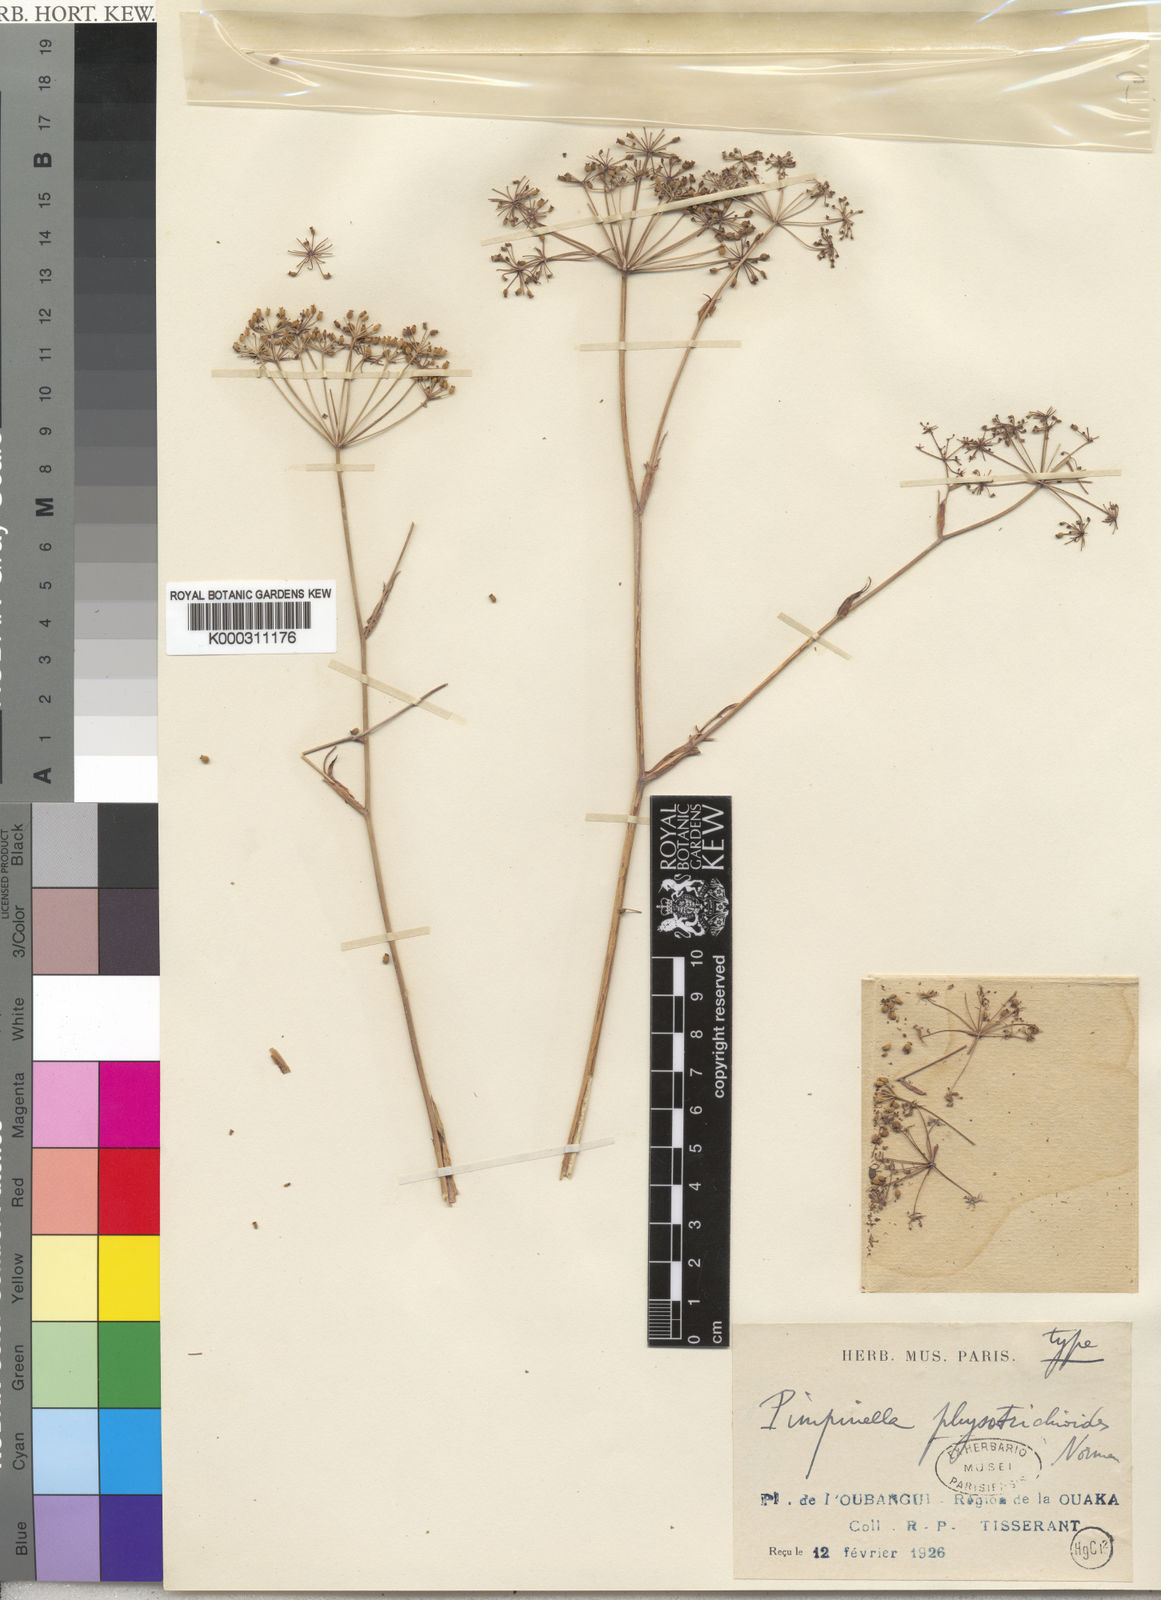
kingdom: Plantae
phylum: Tracheophyta
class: Magnoliopsida
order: Apiales
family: Apiaceae
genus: Pimpinella
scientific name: Pimpinella physotrichioides
